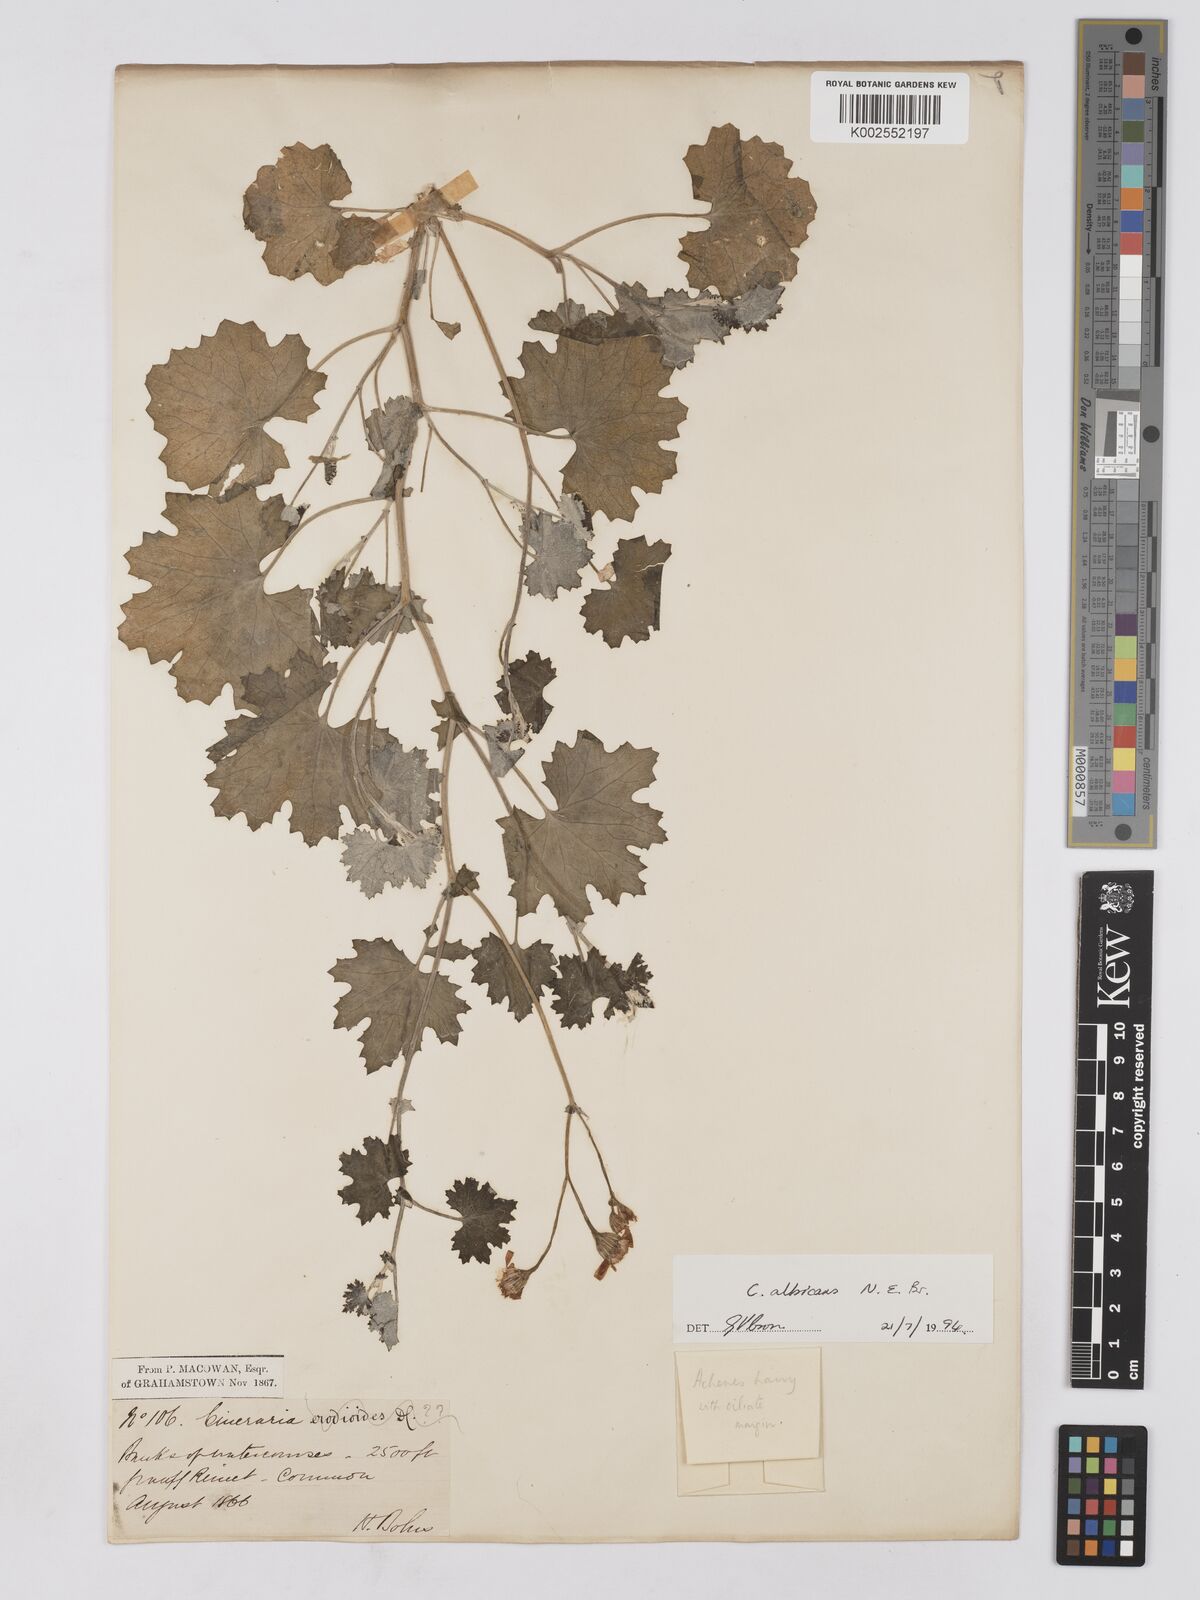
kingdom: Plantae
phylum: Tracheophyta
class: Magnoliopsida
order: Asterales
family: Asteraceae
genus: Cineraria
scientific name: Cineraria albicans
